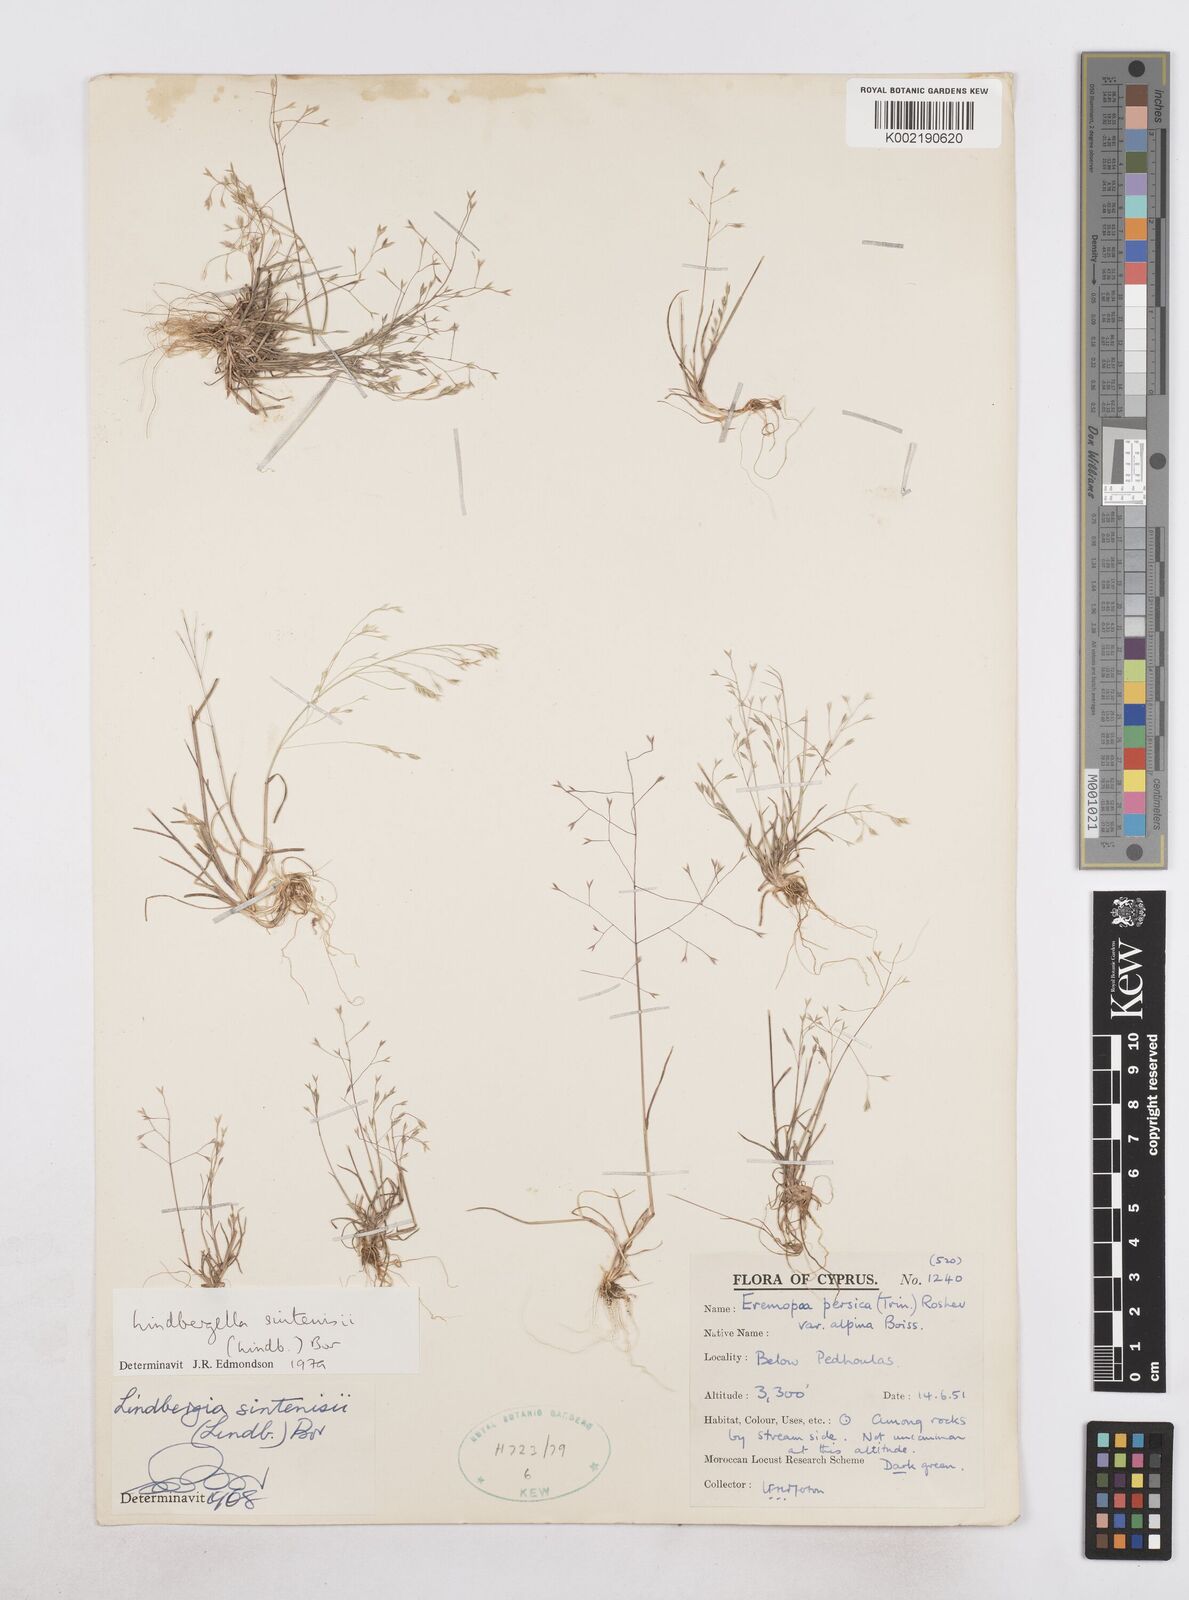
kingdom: Plantae
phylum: Tracheophyta
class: Liliopsida
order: Poales
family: Poaceae
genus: Poa
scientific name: Poa sintenisii
